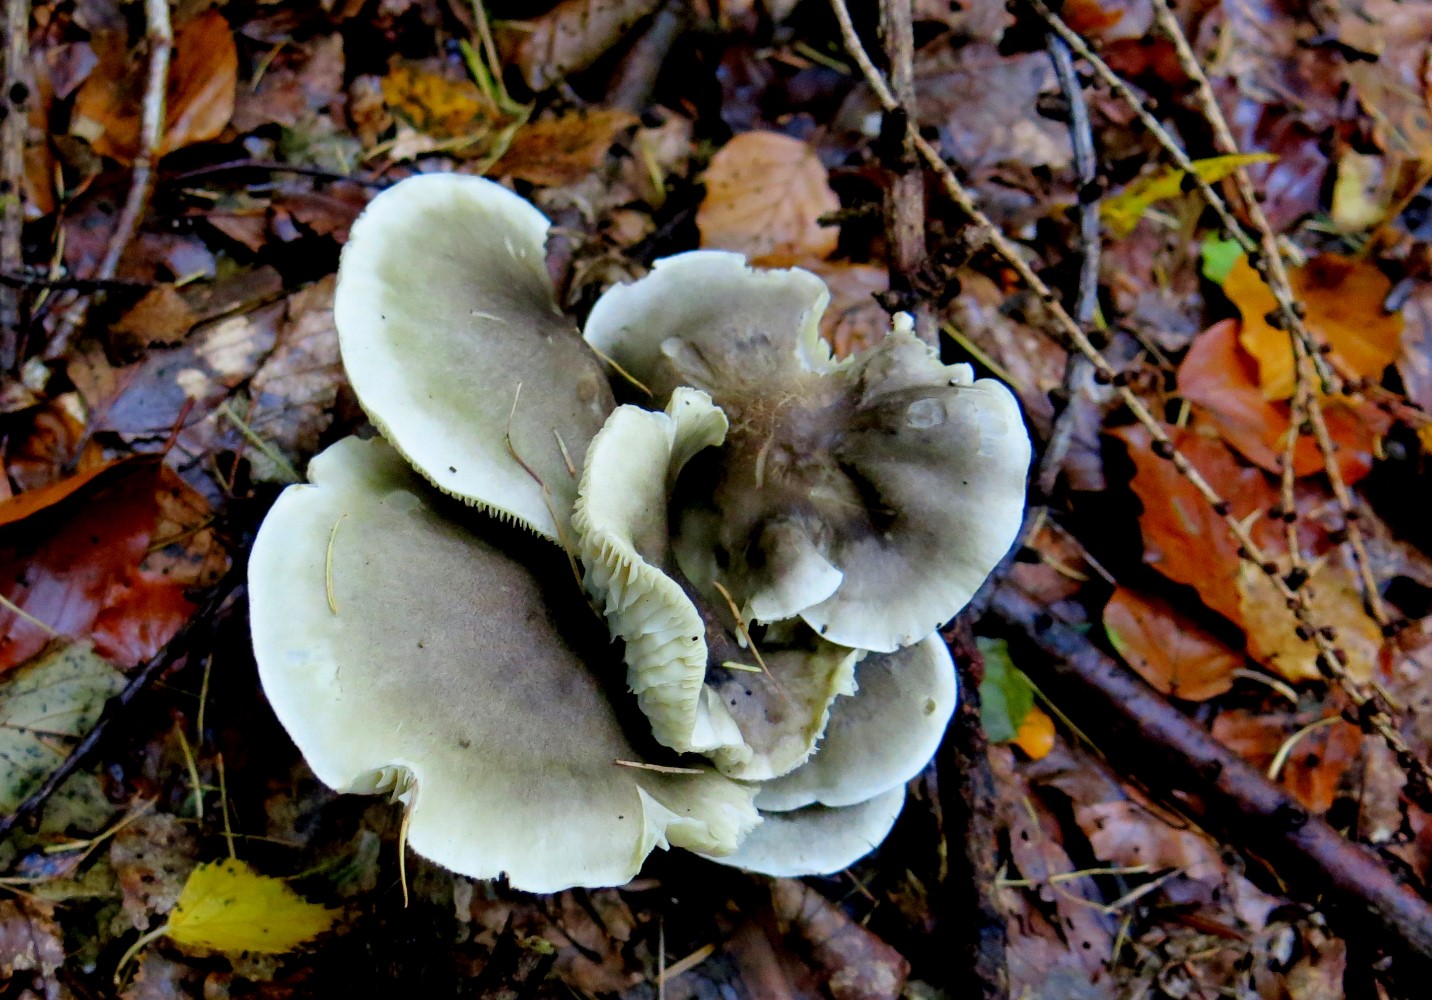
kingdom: Fungi
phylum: Basidiomycota
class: Agaricomycetes
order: Agaricales
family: Tricholomataceae
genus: Tricholoma
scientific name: Tricholoma saponaceum
